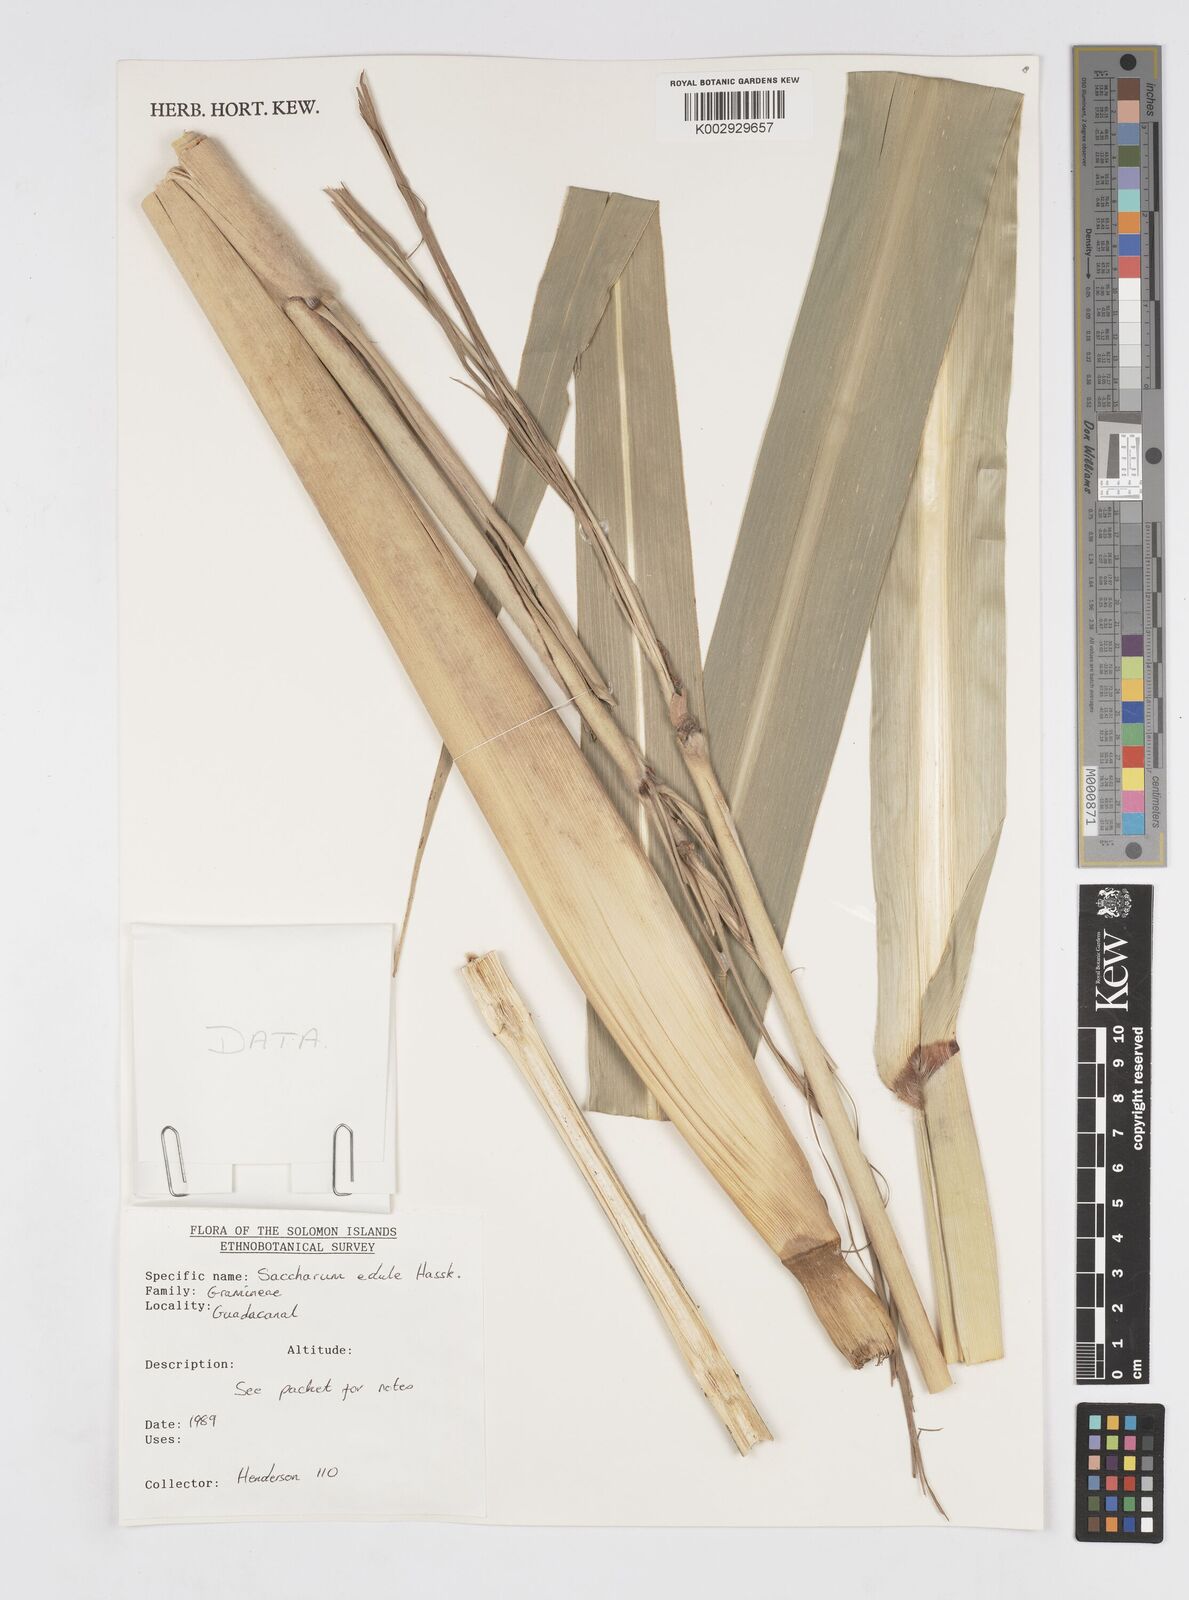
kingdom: Plantae
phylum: Tracheophyta
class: Liliopsida
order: Poales
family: Poaceae
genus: Saccharum
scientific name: Saccharum officinarum
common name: Sugarcane
